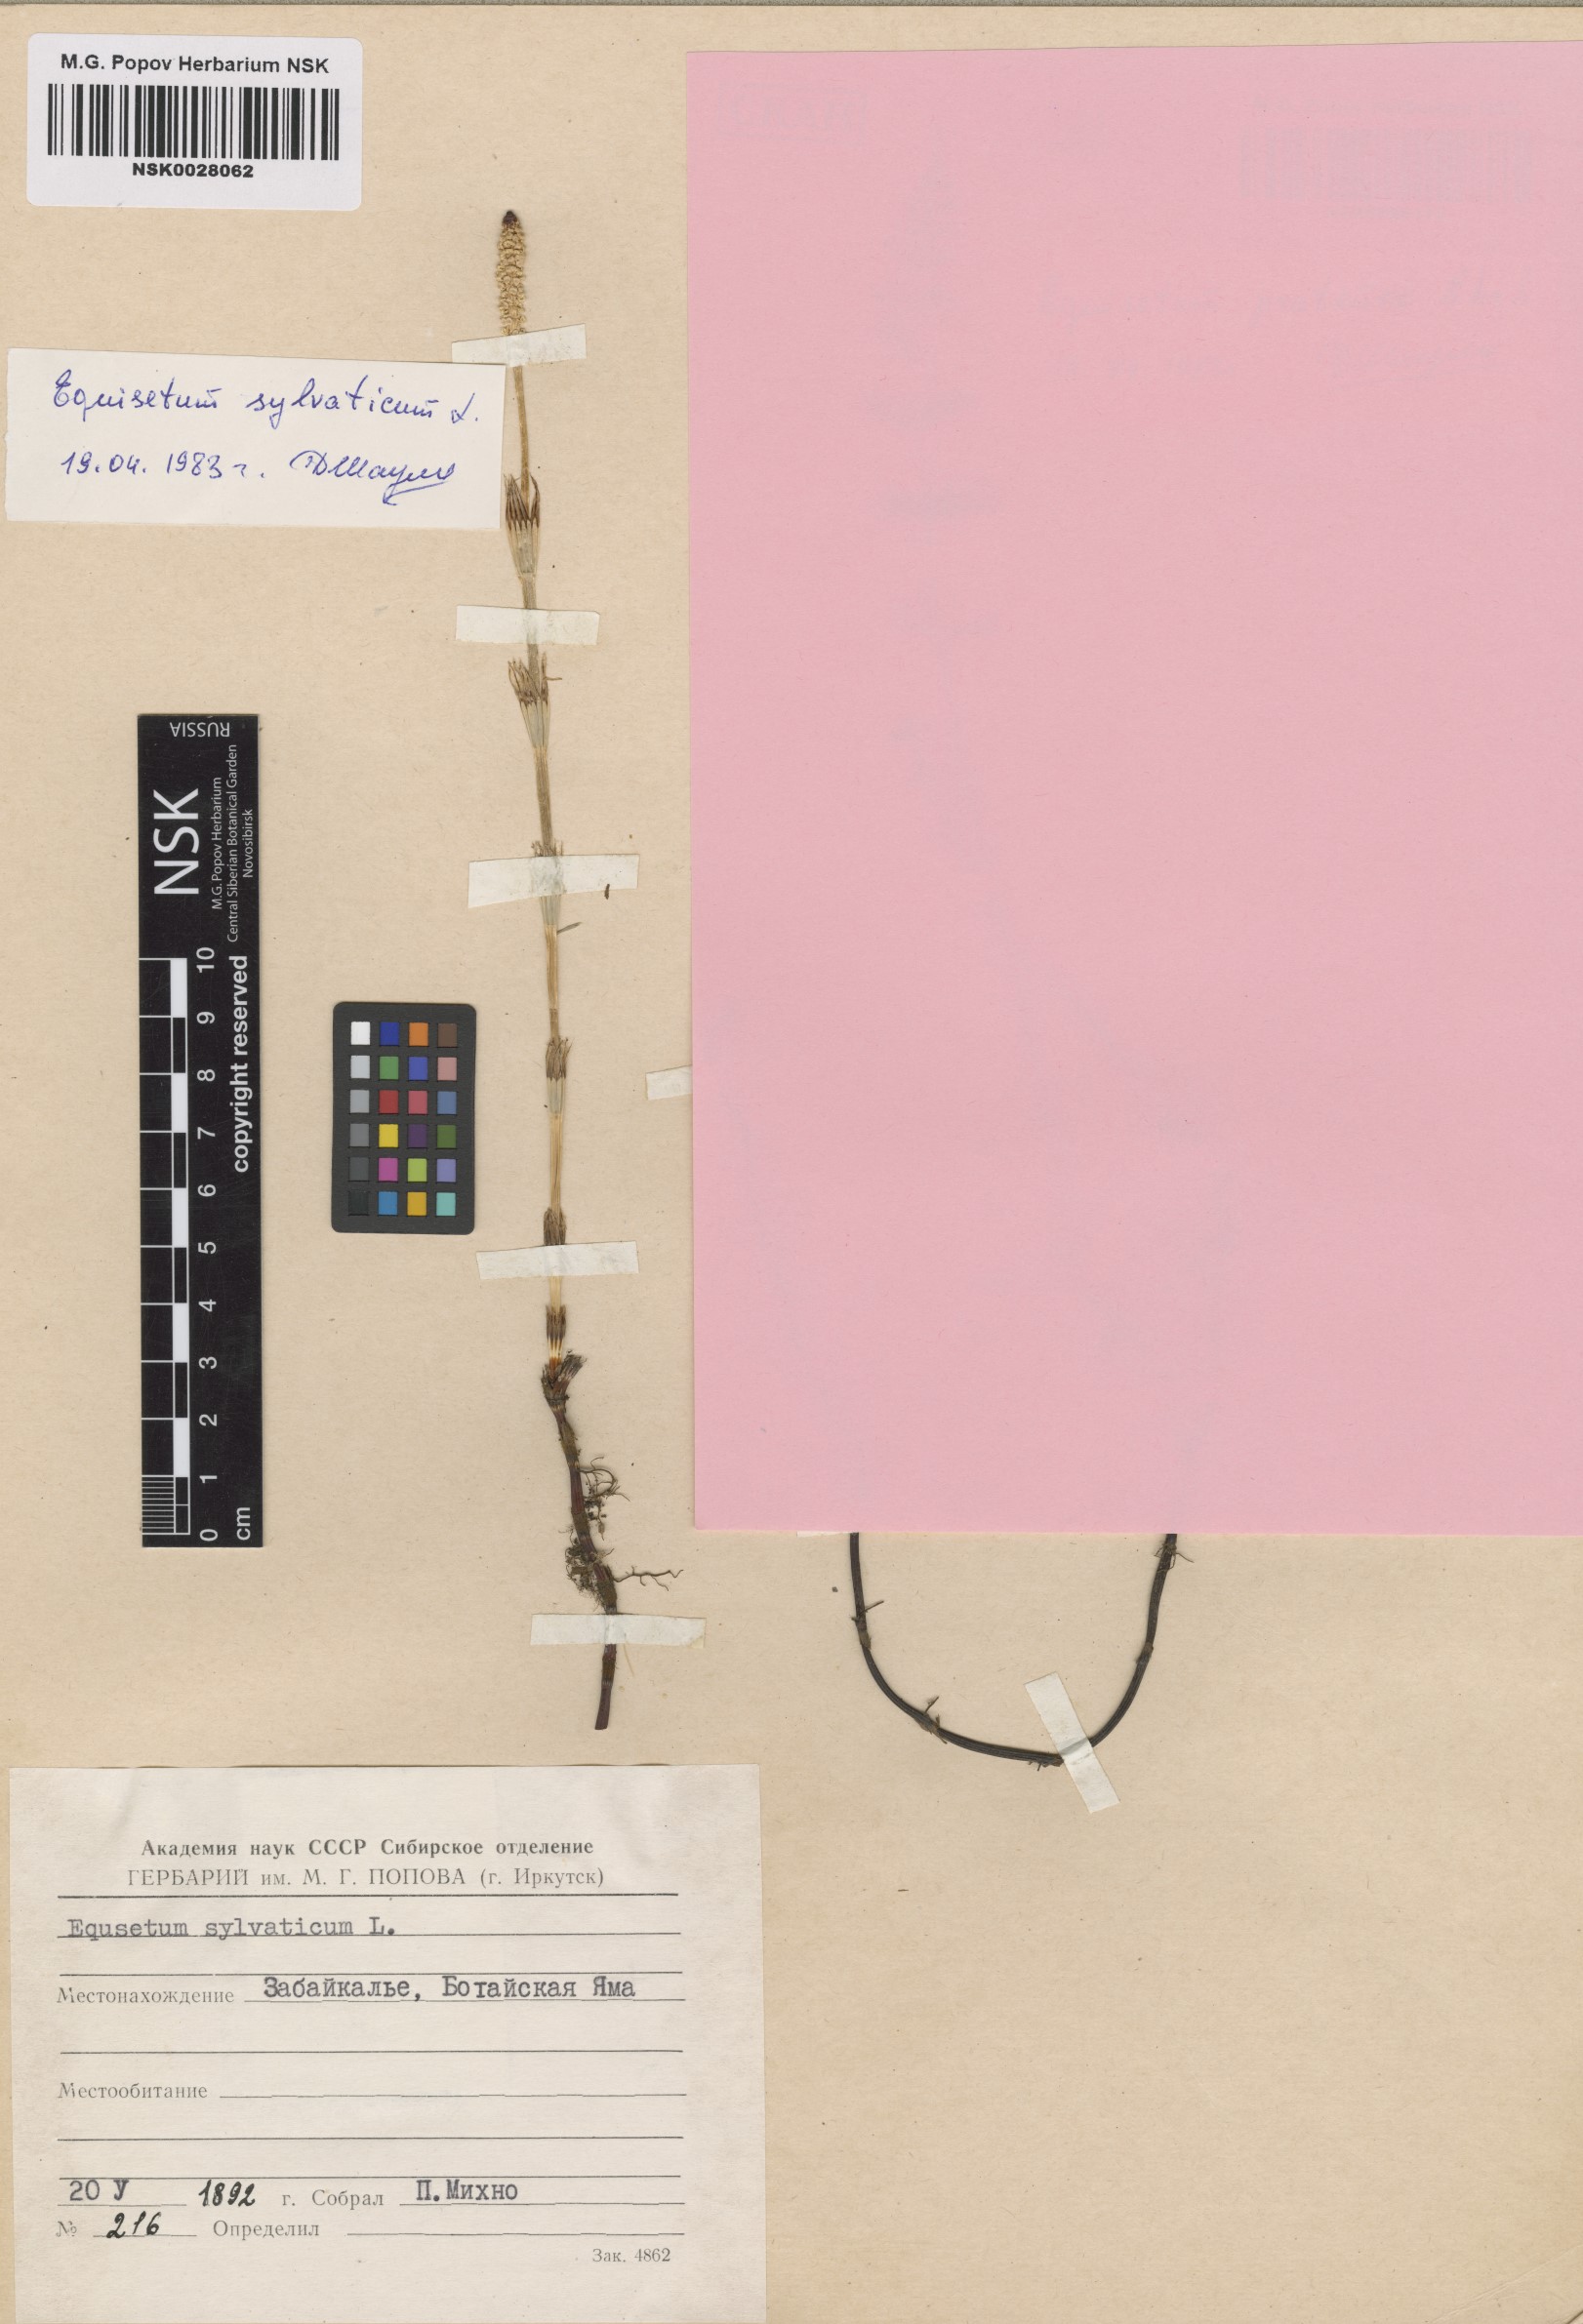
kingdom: Plantae
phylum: Tracheophyta
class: Polypodiopsida
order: Equisetales
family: Equisetaceae
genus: Equisetum
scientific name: Equisetum sylvaticum
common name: Wood horsetail
